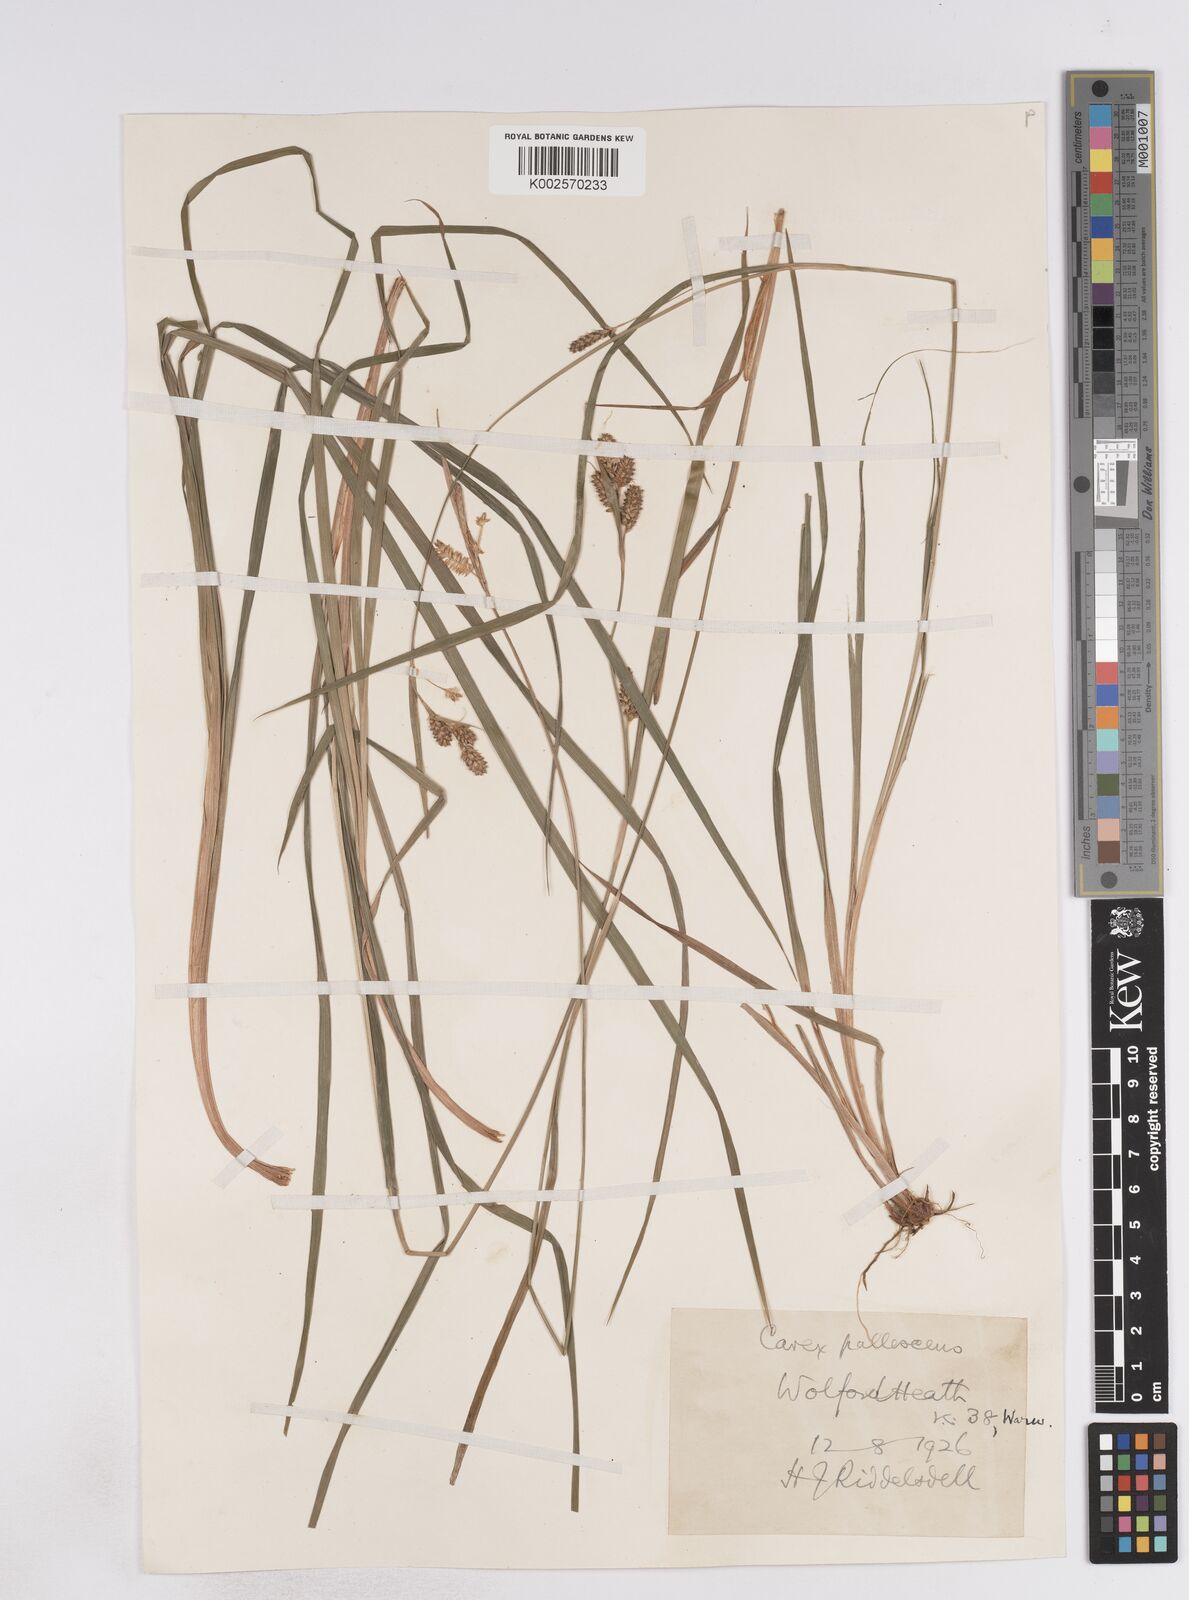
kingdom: Plantae
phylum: Tracheophyta
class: Liliopsida
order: Poales
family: Cyperaceae
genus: Carex
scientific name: Carex pallescens
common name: Pale sedge
